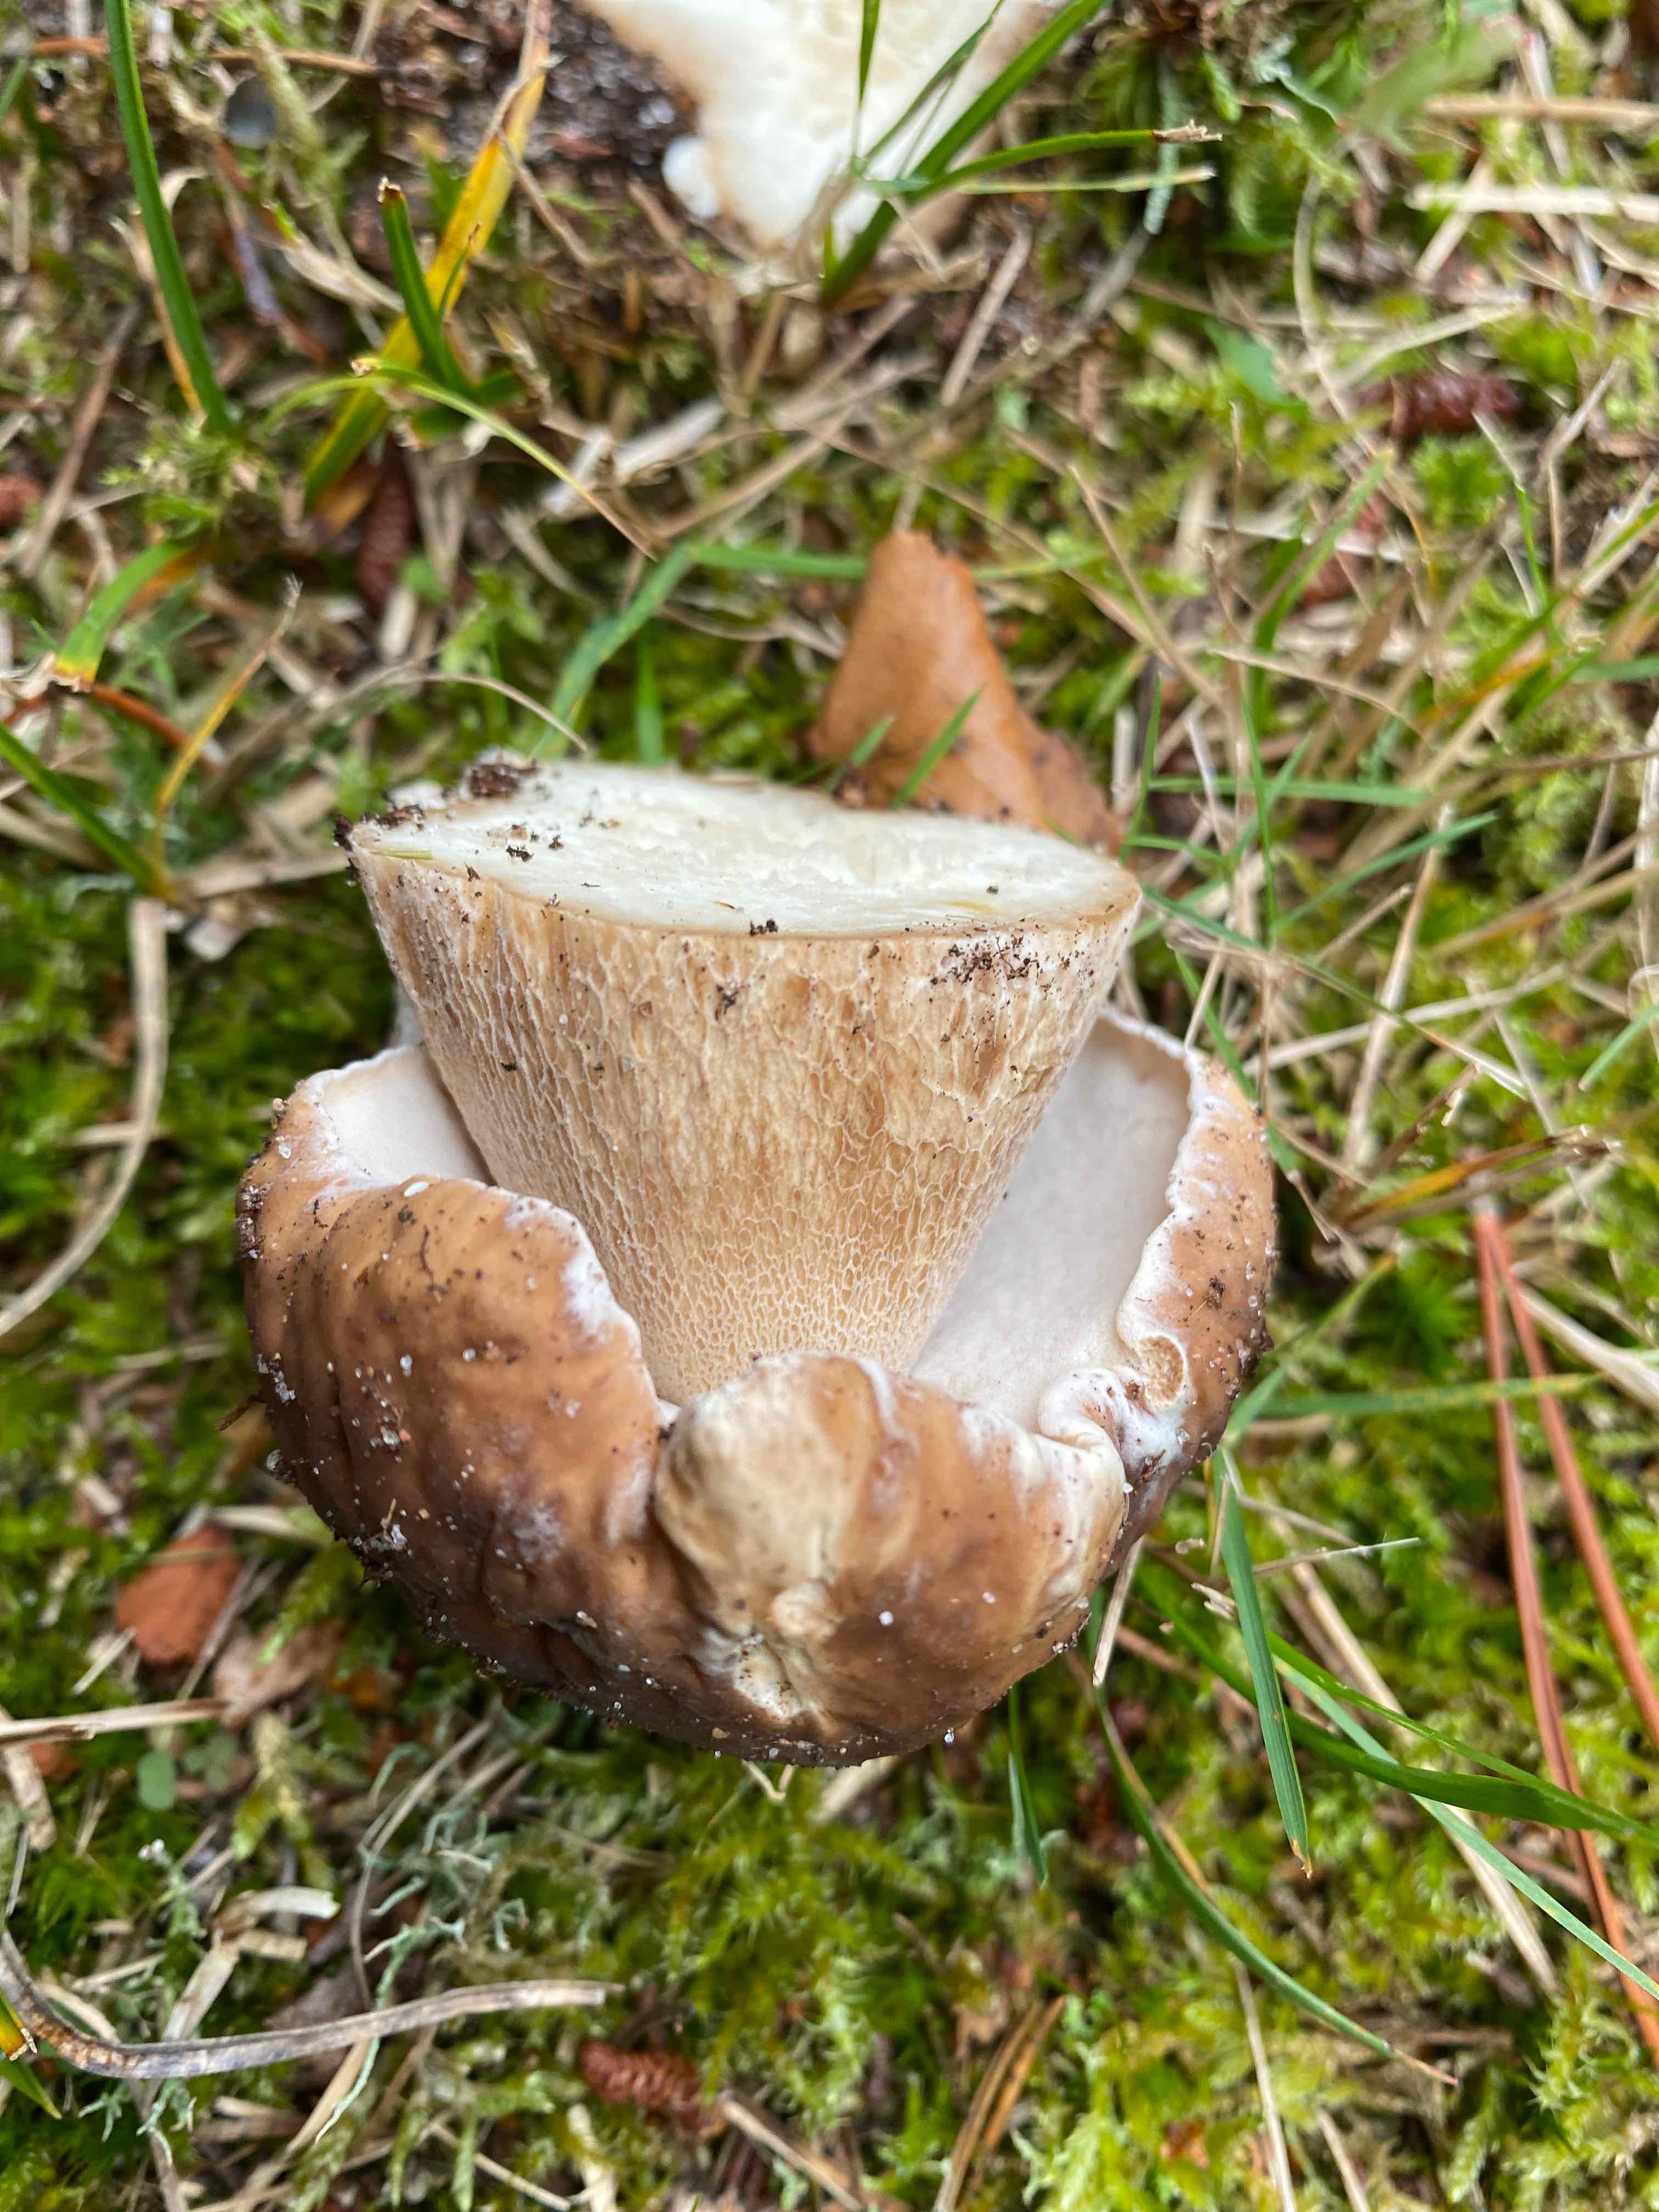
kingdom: Fungi
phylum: Basidiomycota
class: Agaricomycetes
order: Boletales
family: Boletaceae
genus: Boletus
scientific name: Boletus edulis
